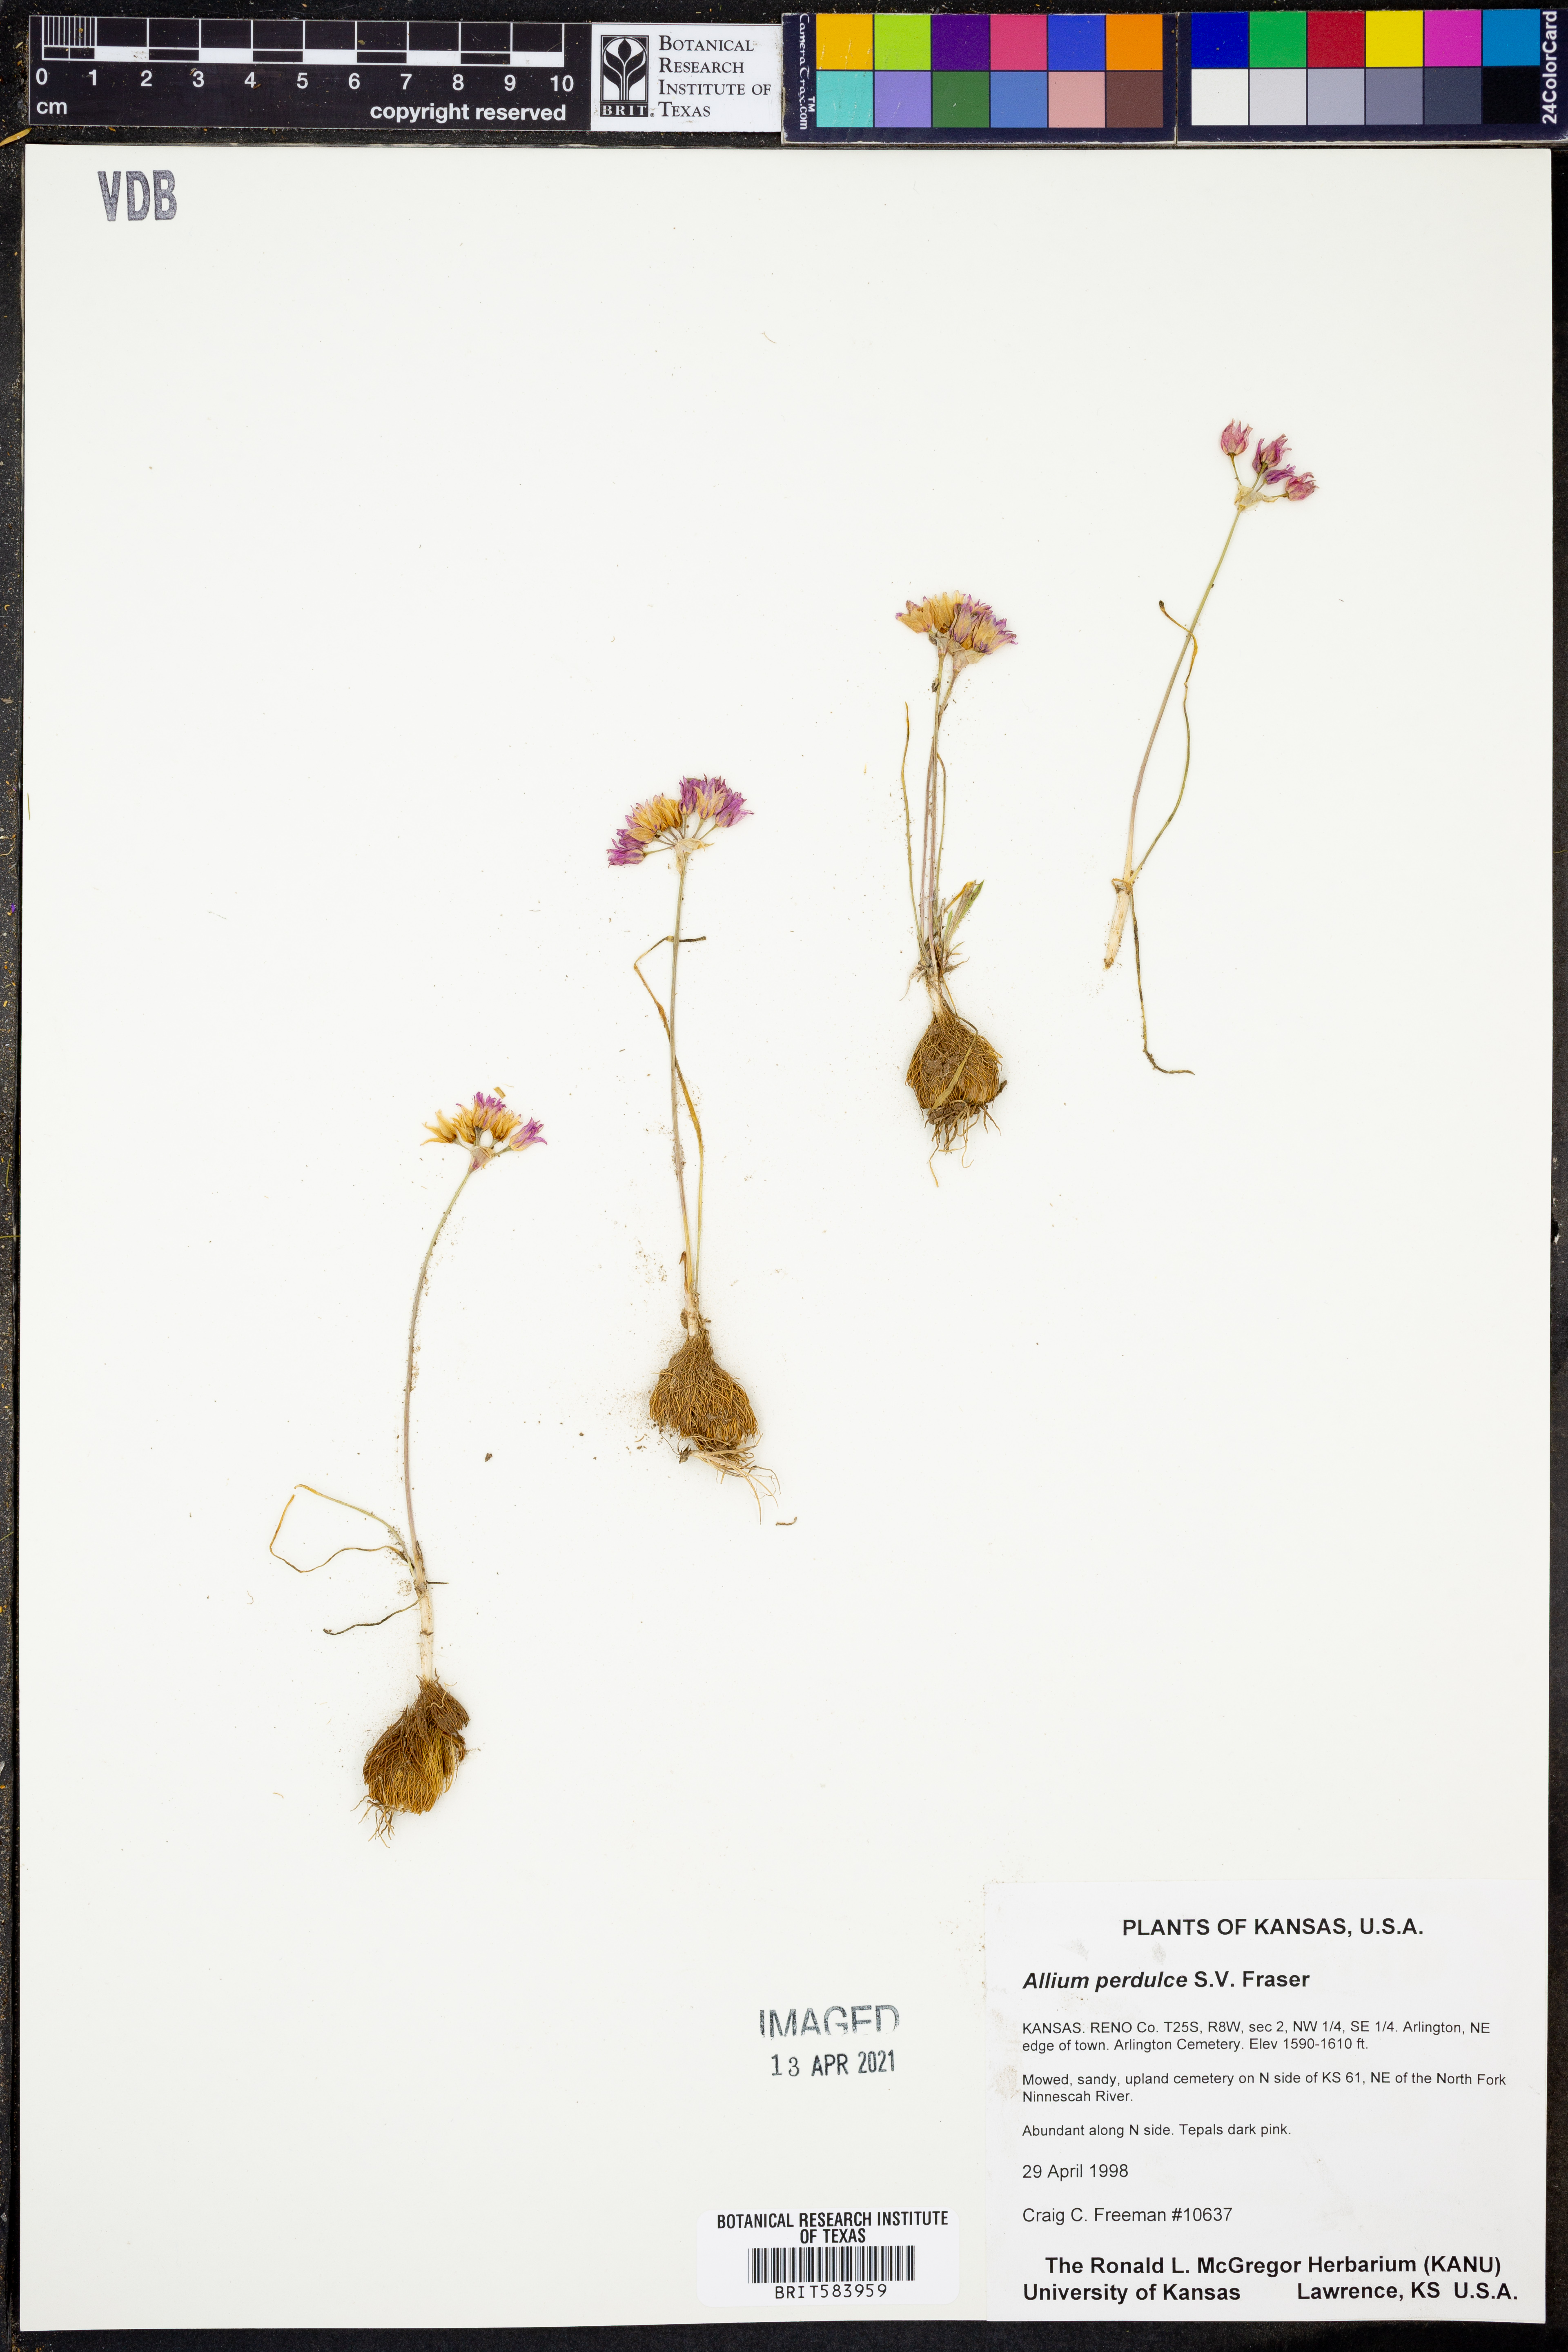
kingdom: Plantae
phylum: Tracheophyta
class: Liliopsida
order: Asparagales
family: Amaryllidaceae
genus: Allium
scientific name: Allium perdulce
